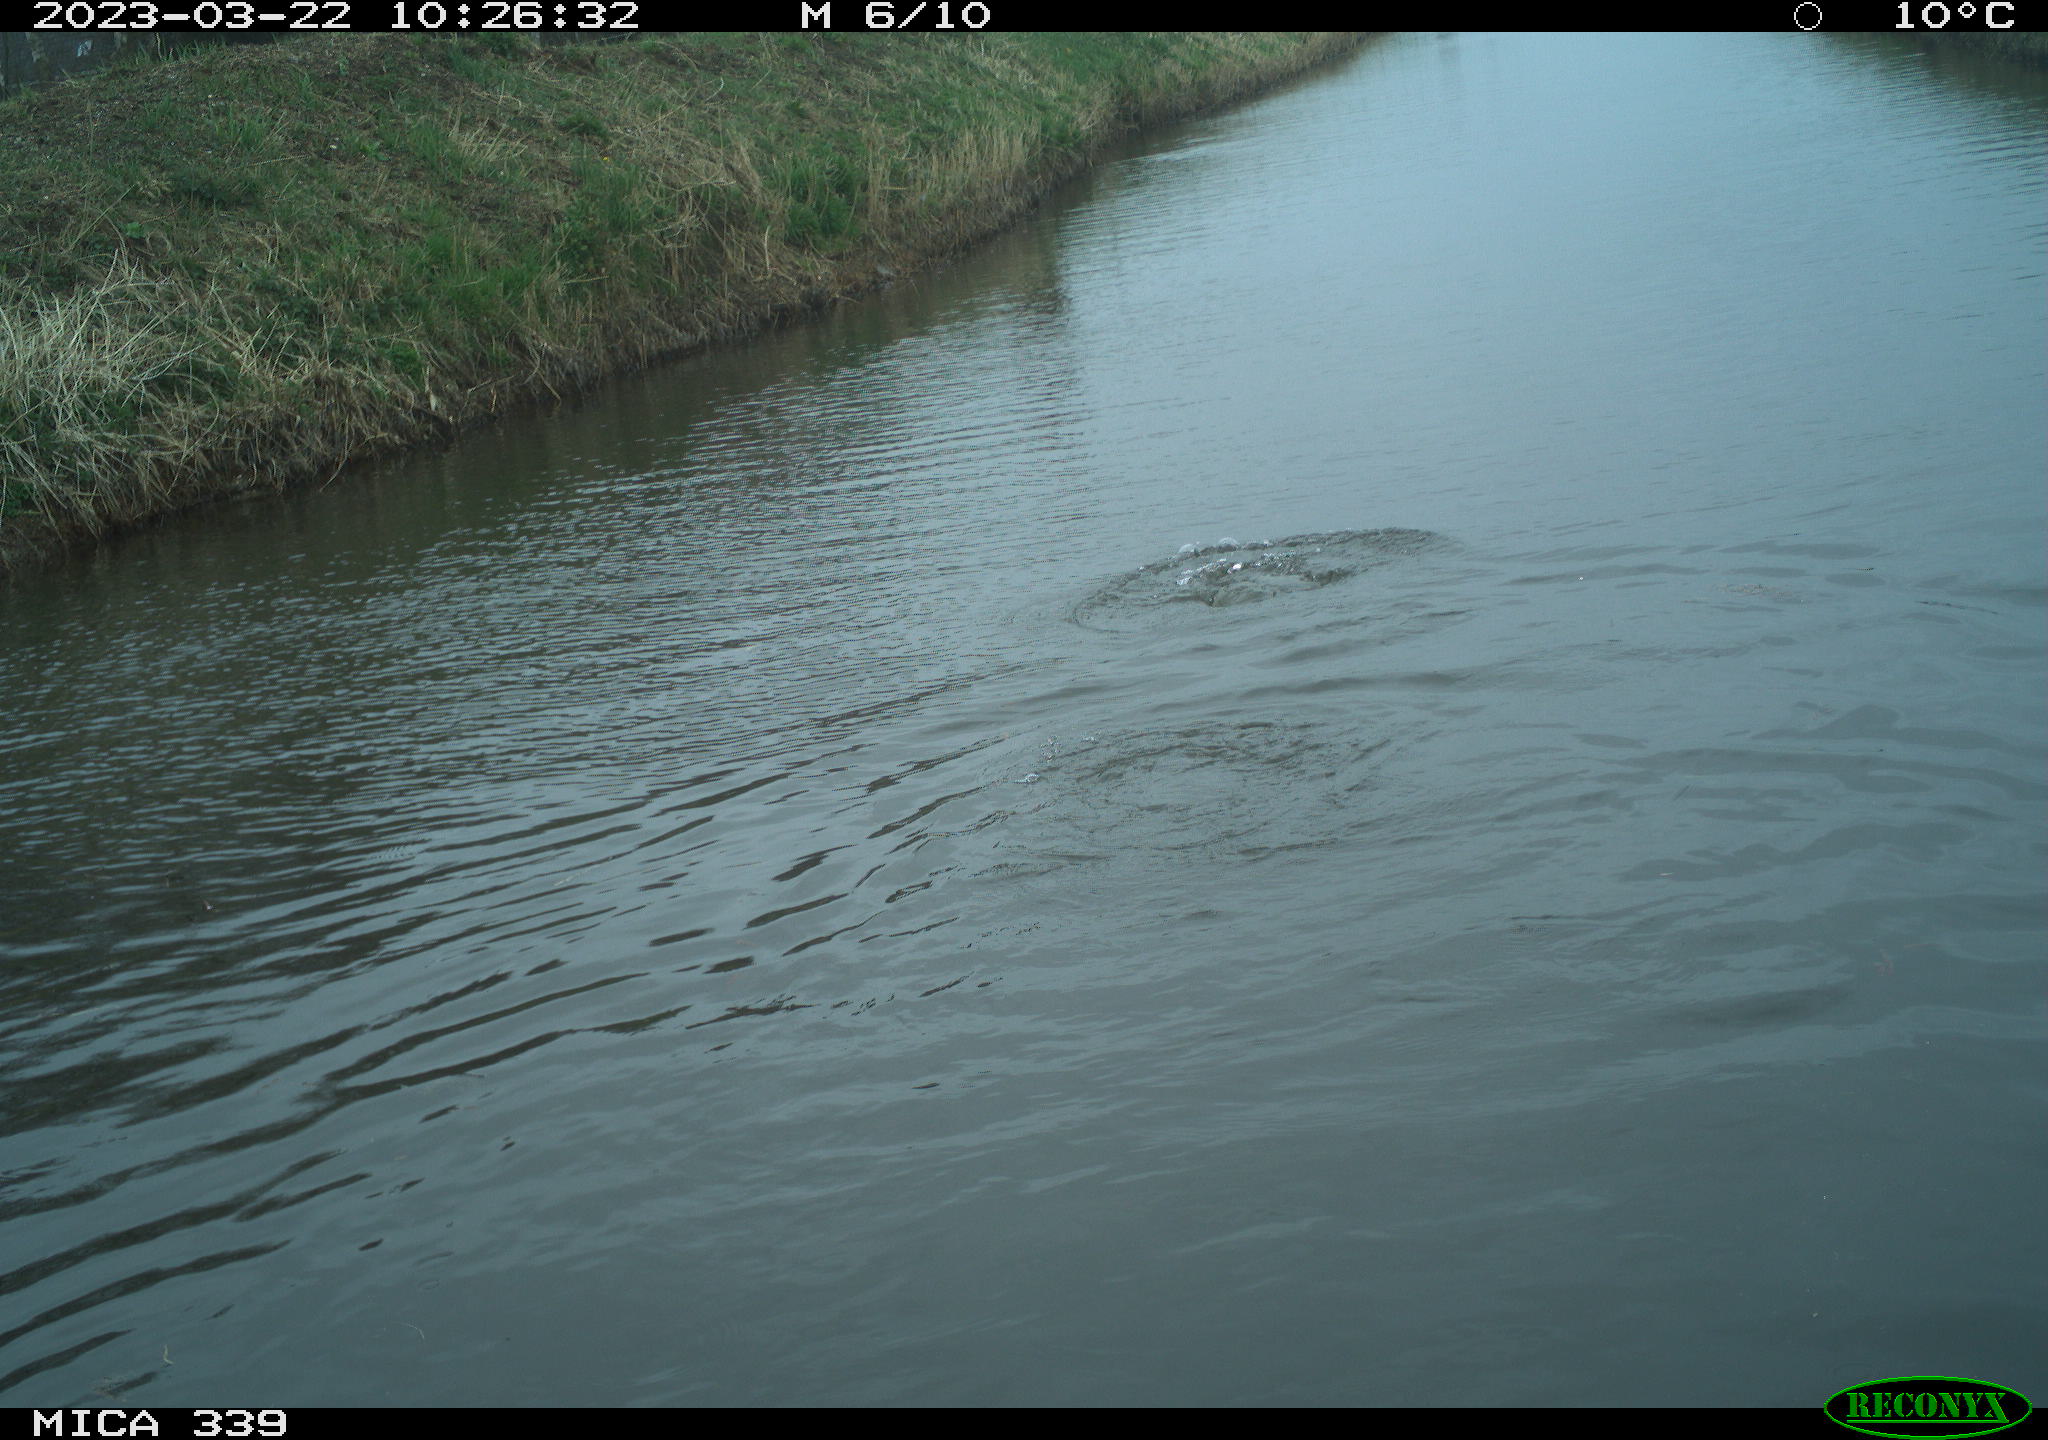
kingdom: Animalia
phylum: Chordata
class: Aves
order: Anseriformes
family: Anatidae
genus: Anas
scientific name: Anas
